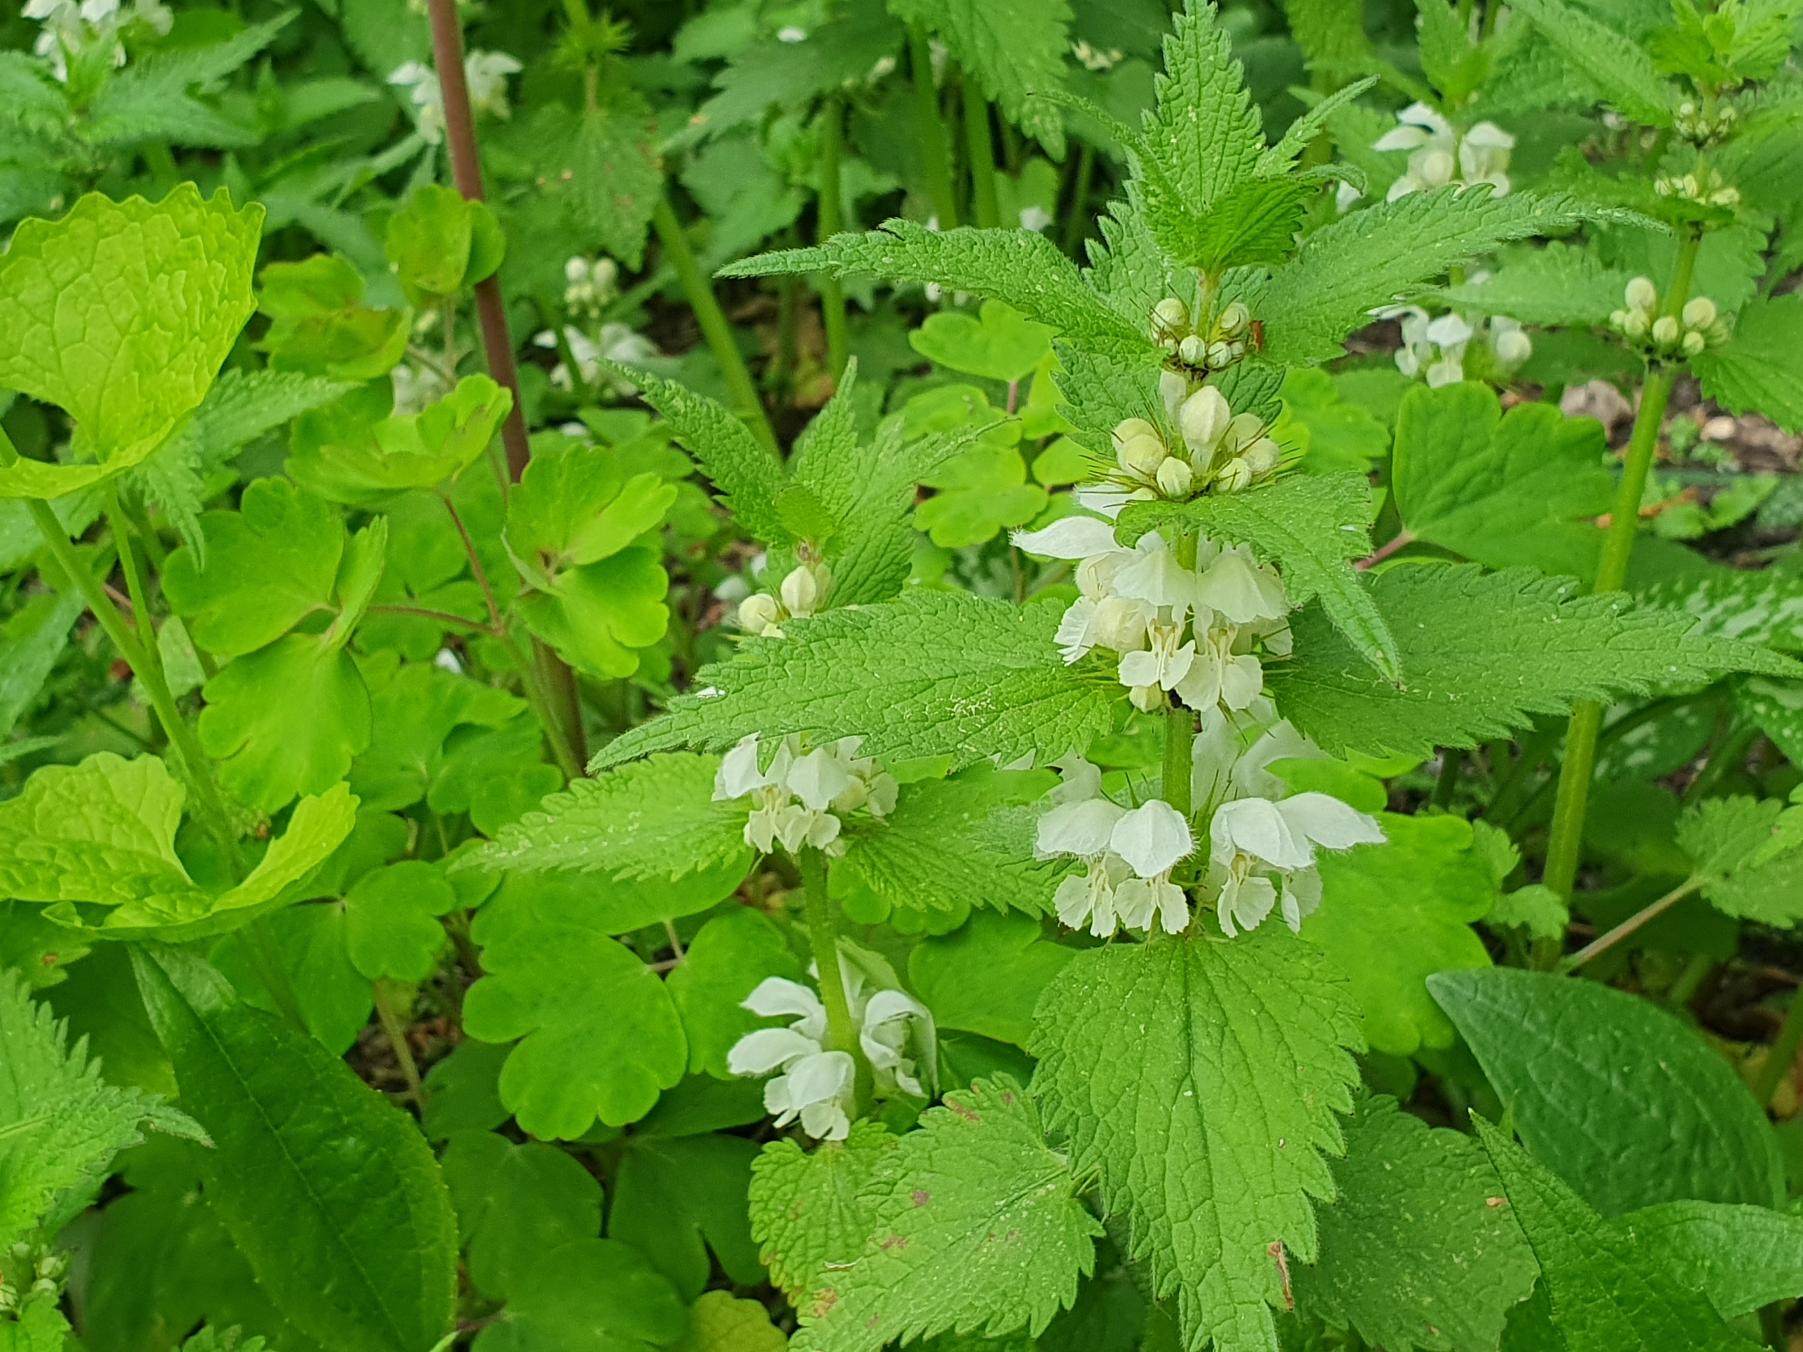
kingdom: Plantae
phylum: Tracheophyta
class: Magnoliopsida
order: Lamiales
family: Lamiaceae
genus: Lamium
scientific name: Lamium album
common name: Døvnælde
